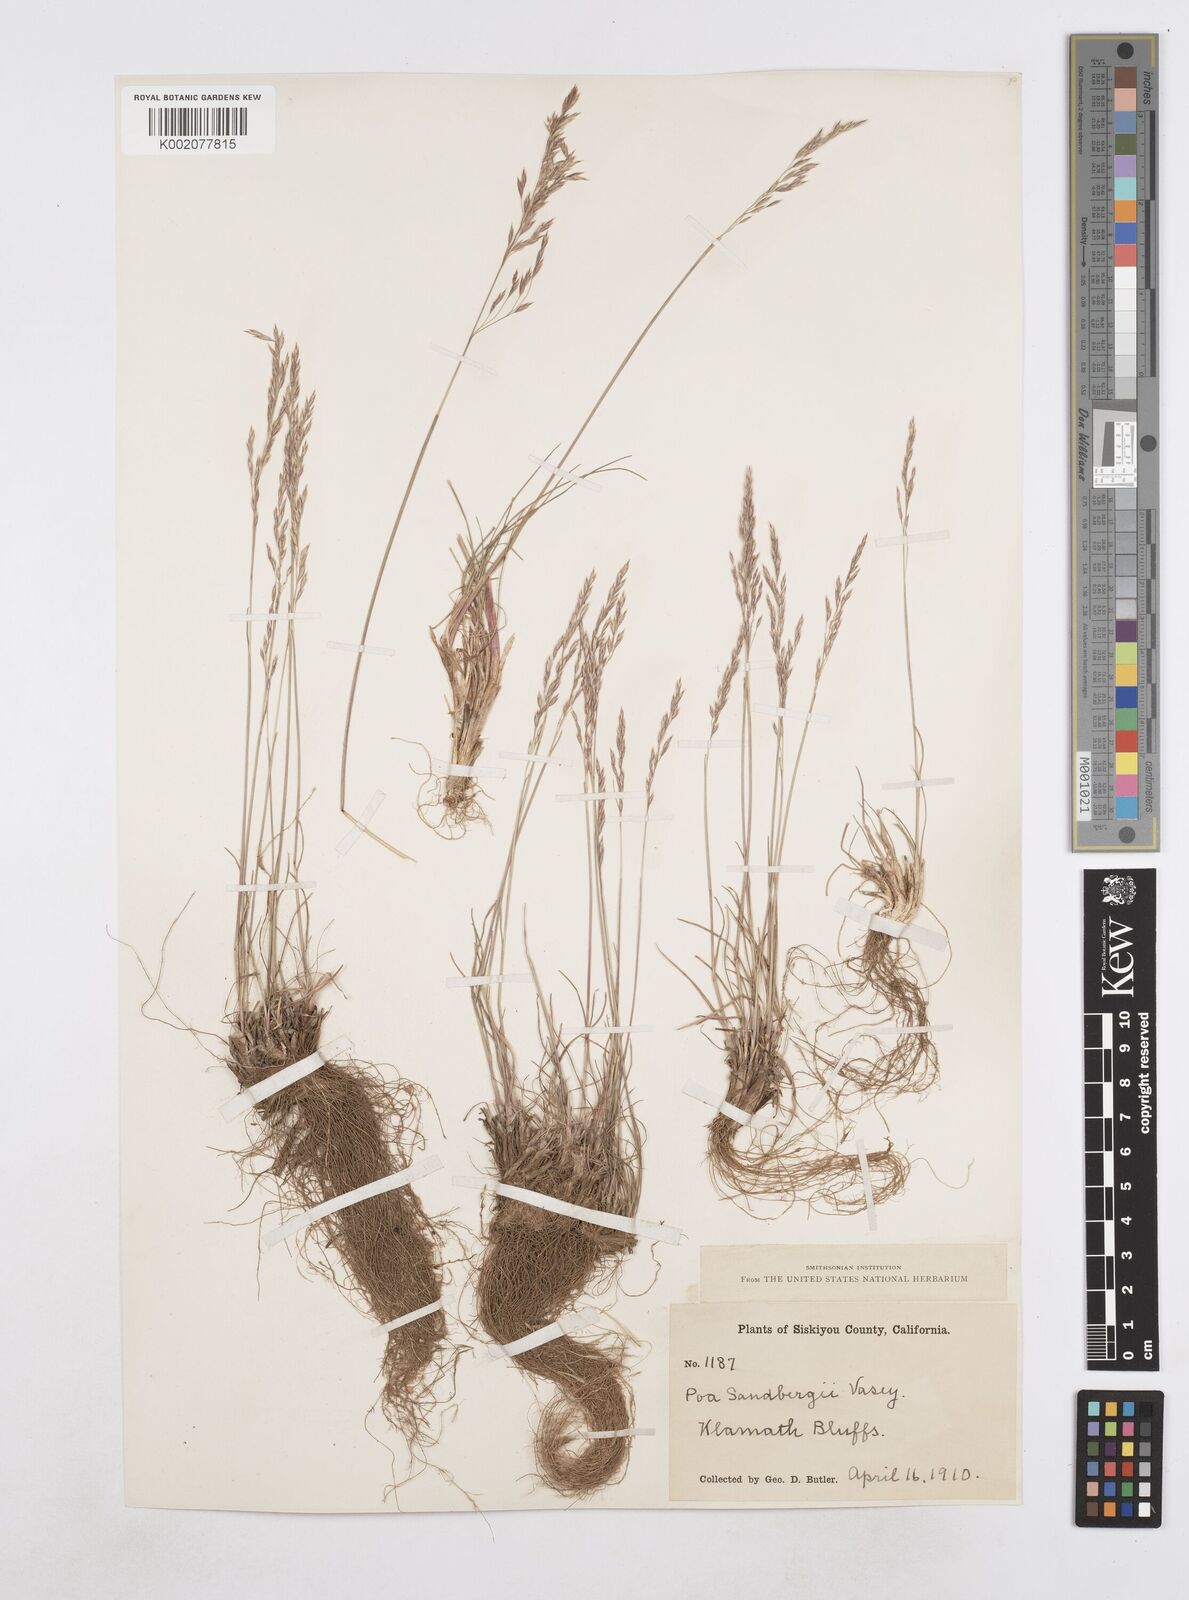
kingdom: Plantae
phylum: Tracheophyta
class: Liliopsida
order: Poales
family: Poaceae
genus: Poa
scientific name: Poa secunda
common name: Sandberg bluegrass
